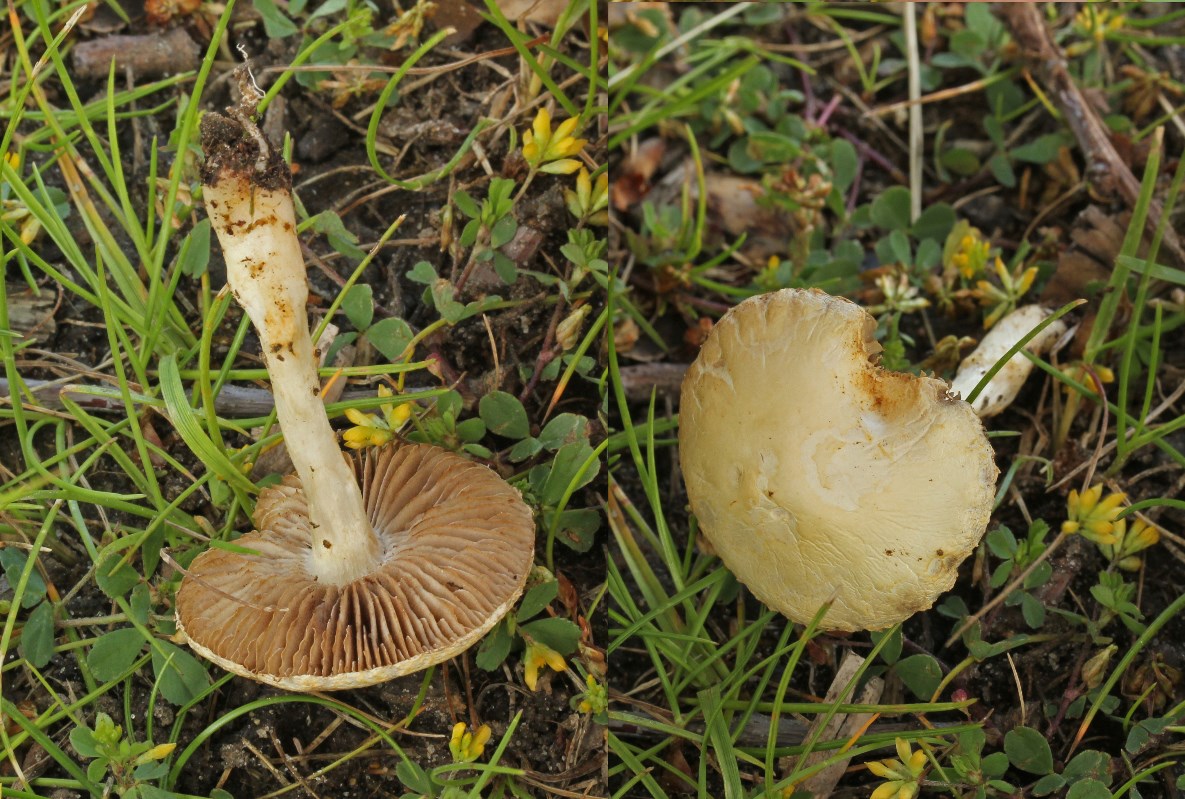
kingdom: Fungi
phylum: Basidiomycota
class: Agaricomycetes
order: Agaricales
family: Strophariaceae
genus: Agrocybe
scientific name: Agrocybe pediades
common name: almindelig agerhat
